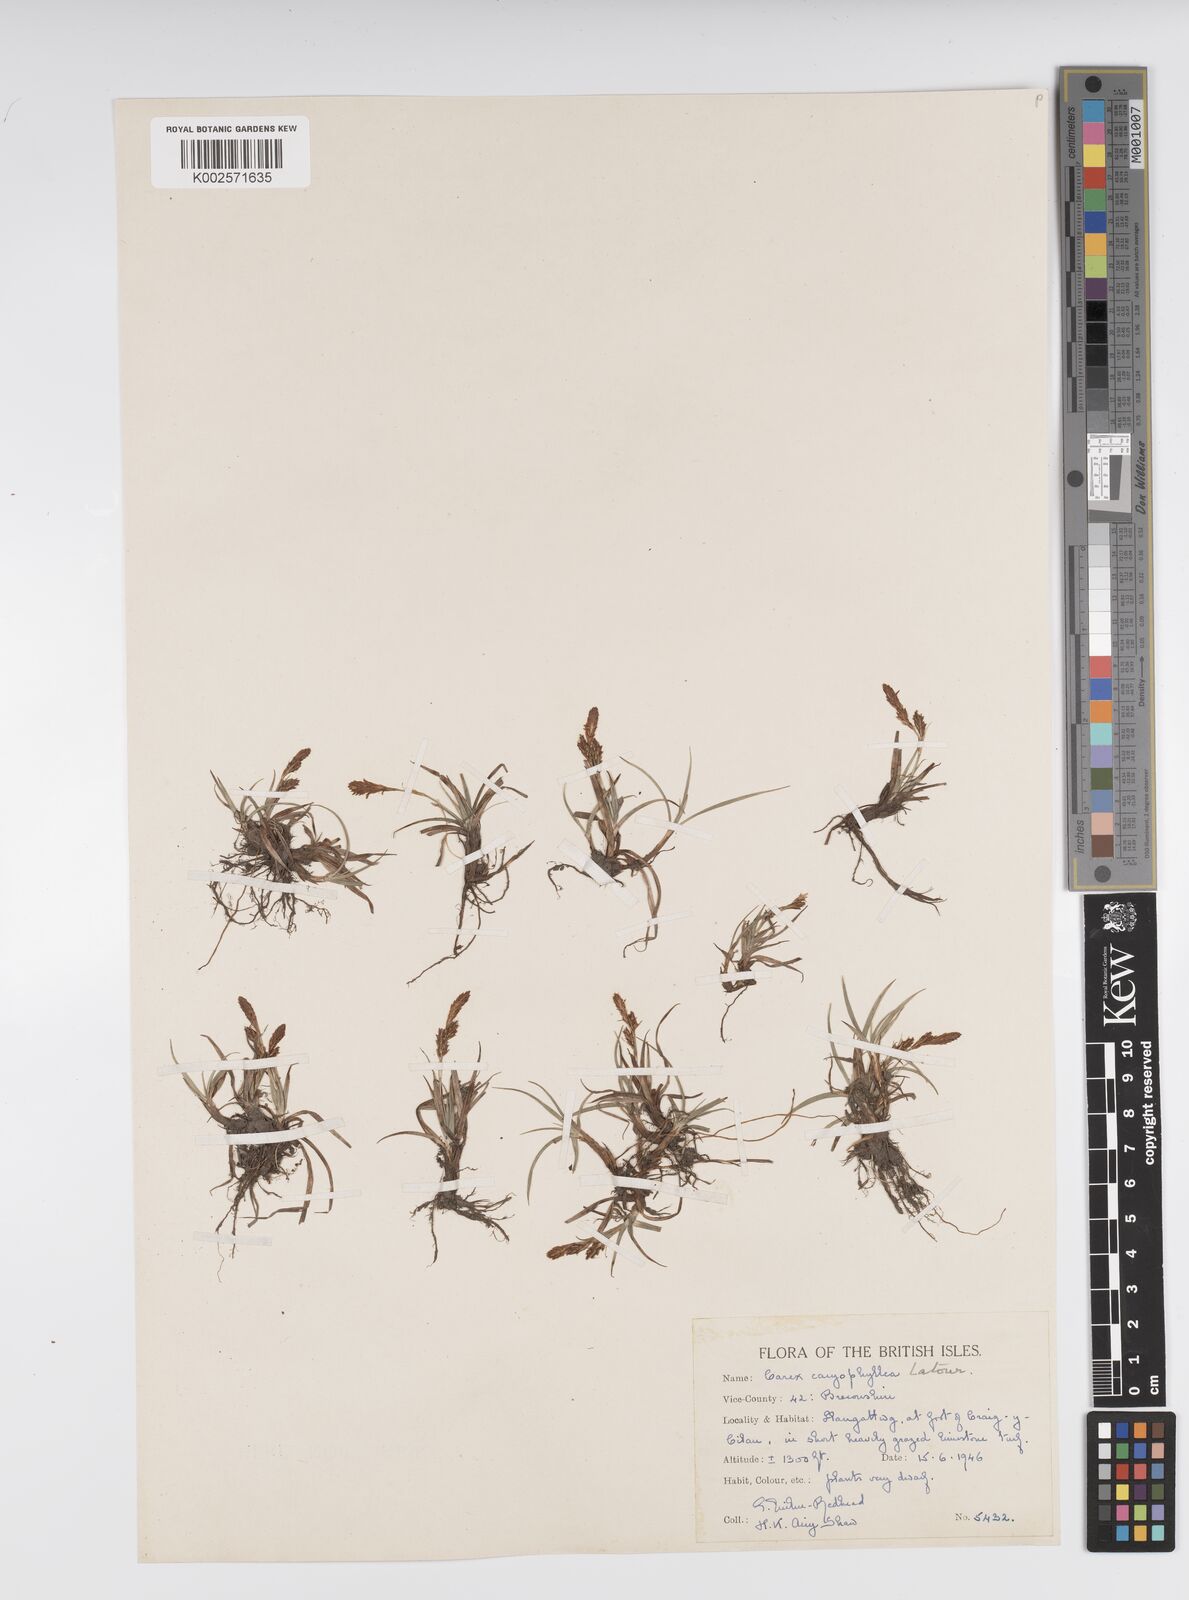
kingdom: Plantae
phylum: Tracheophyta
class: Liliopsida
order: Poales
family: Cyperaceae
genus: Carex
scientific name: Carex caryophyllea
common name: Spring sedge
